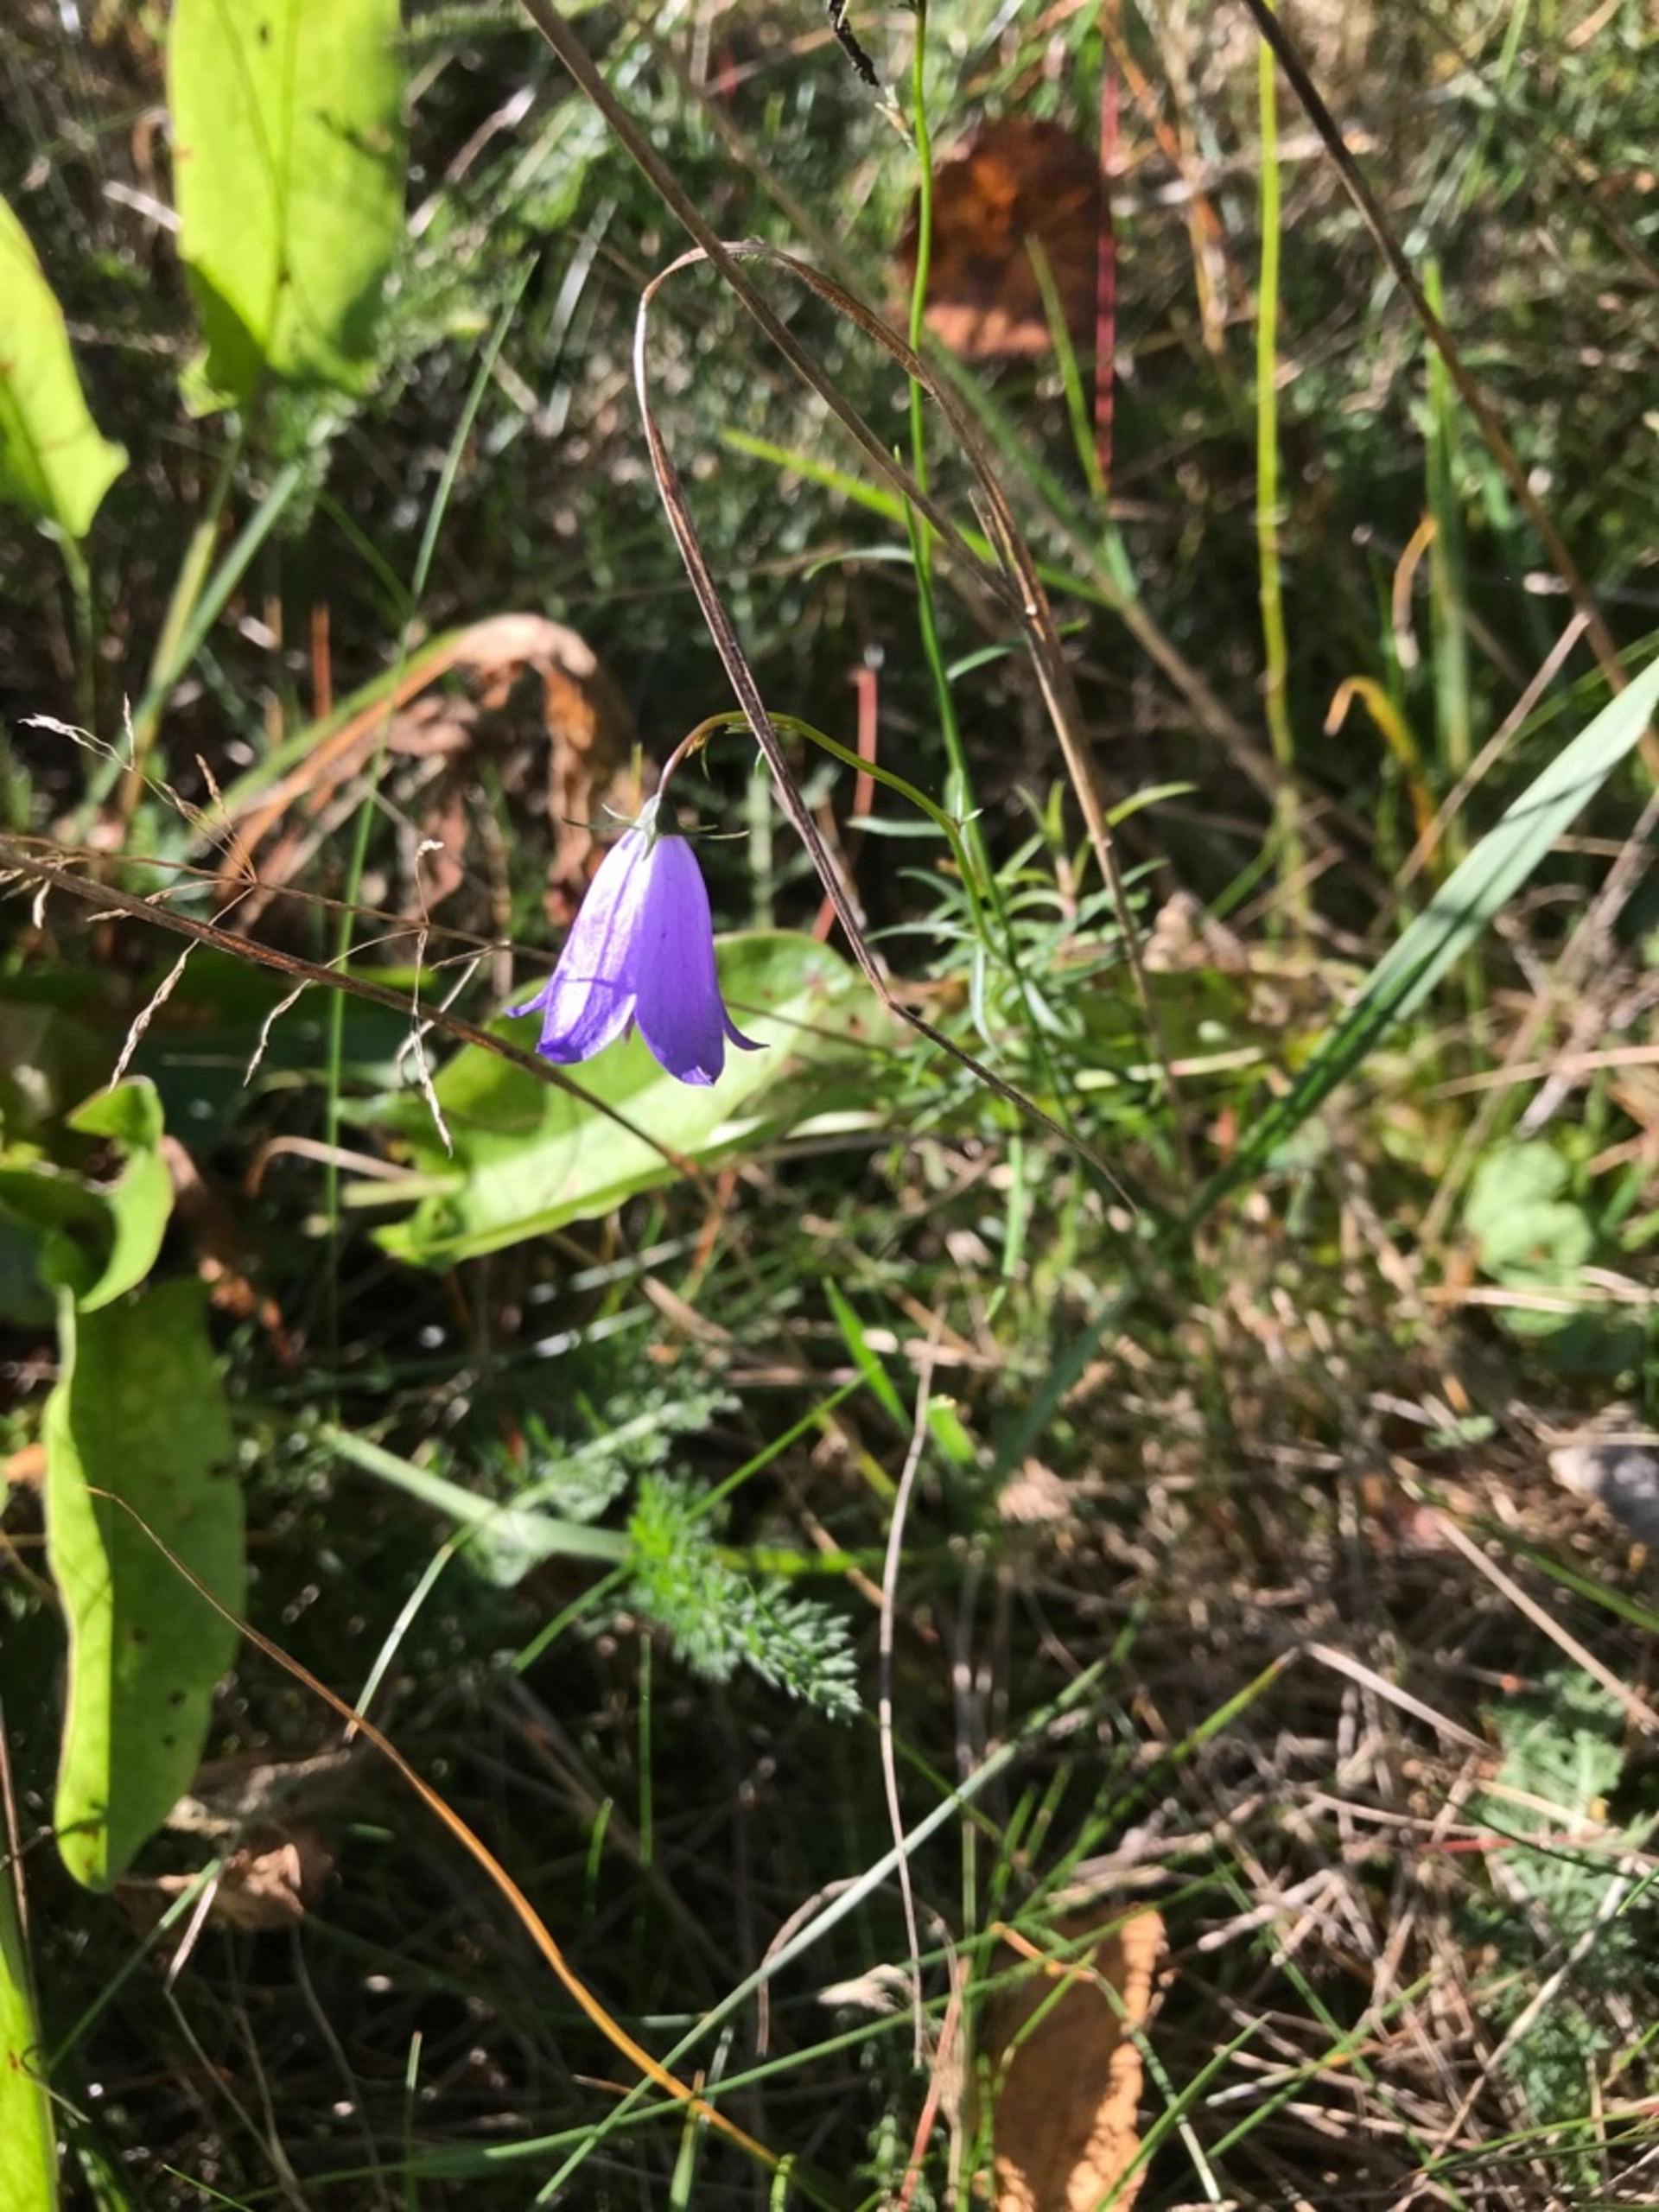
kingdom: Plantae
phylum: Tracheophyta
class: Magnoliopsida
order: Asterales
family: Campanulaceae
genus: Campanula
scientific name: Campanula rotundifolia
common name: Liden klokke
